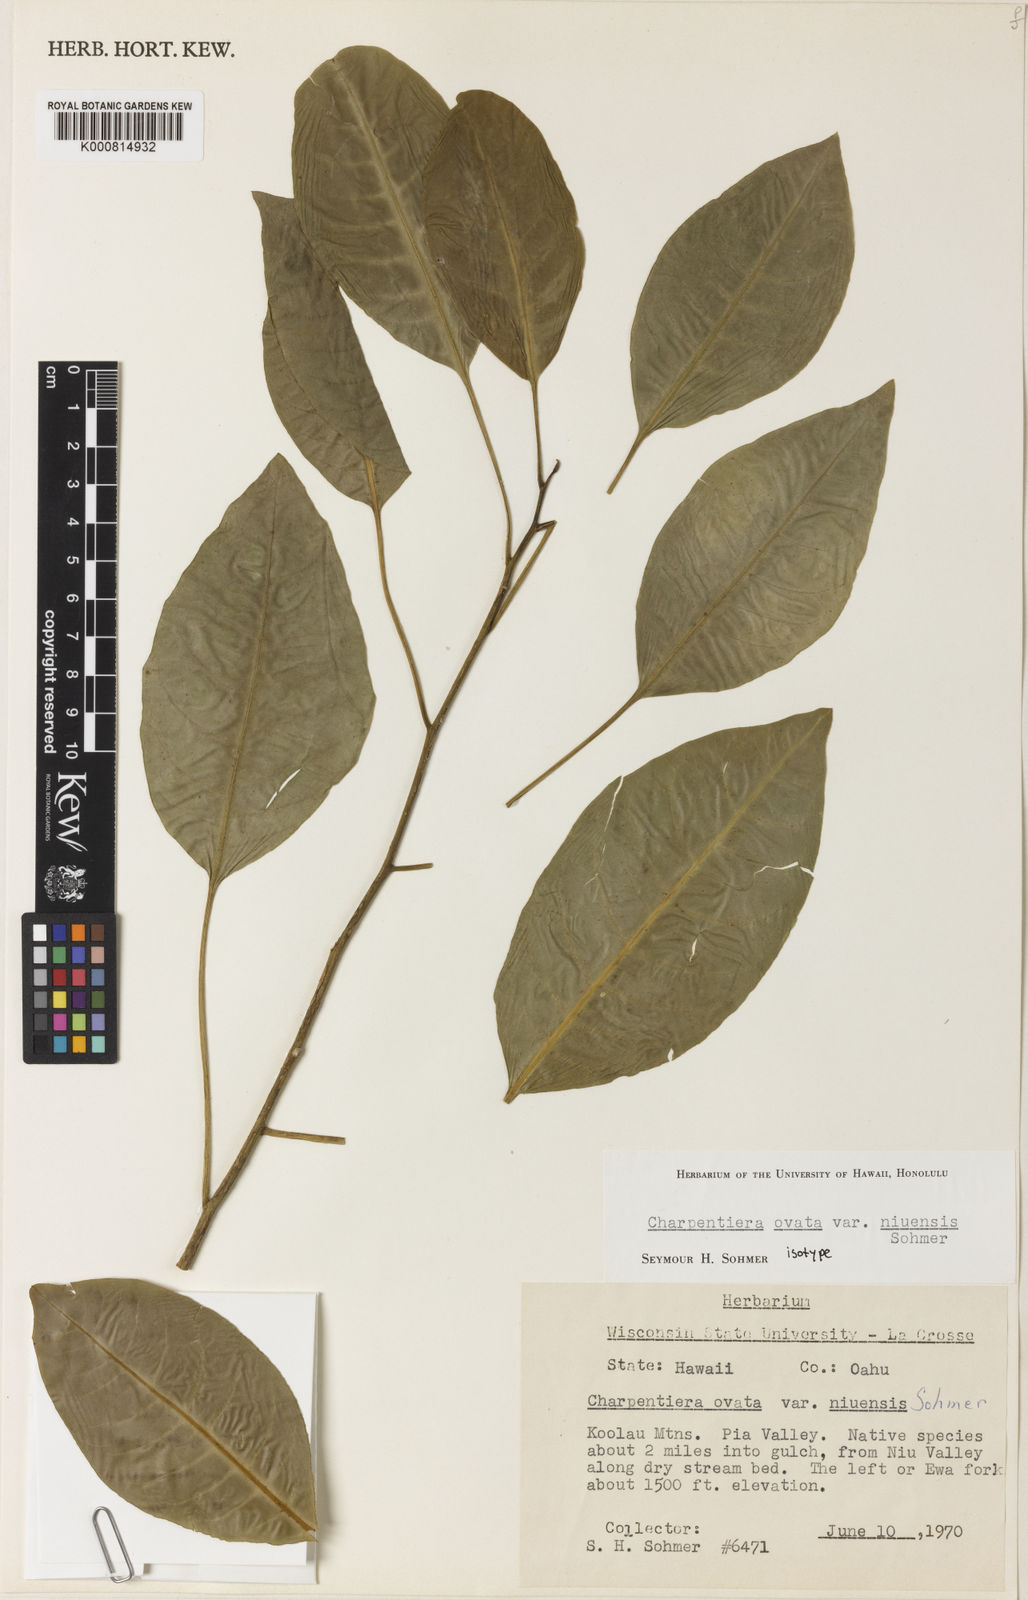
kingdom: Plantae
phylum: Tracheophyta
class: Magnoliopsida
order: Caryophyllales
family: Amaranthaceae
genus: Charpentiera
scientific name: Charpentiera ovata
